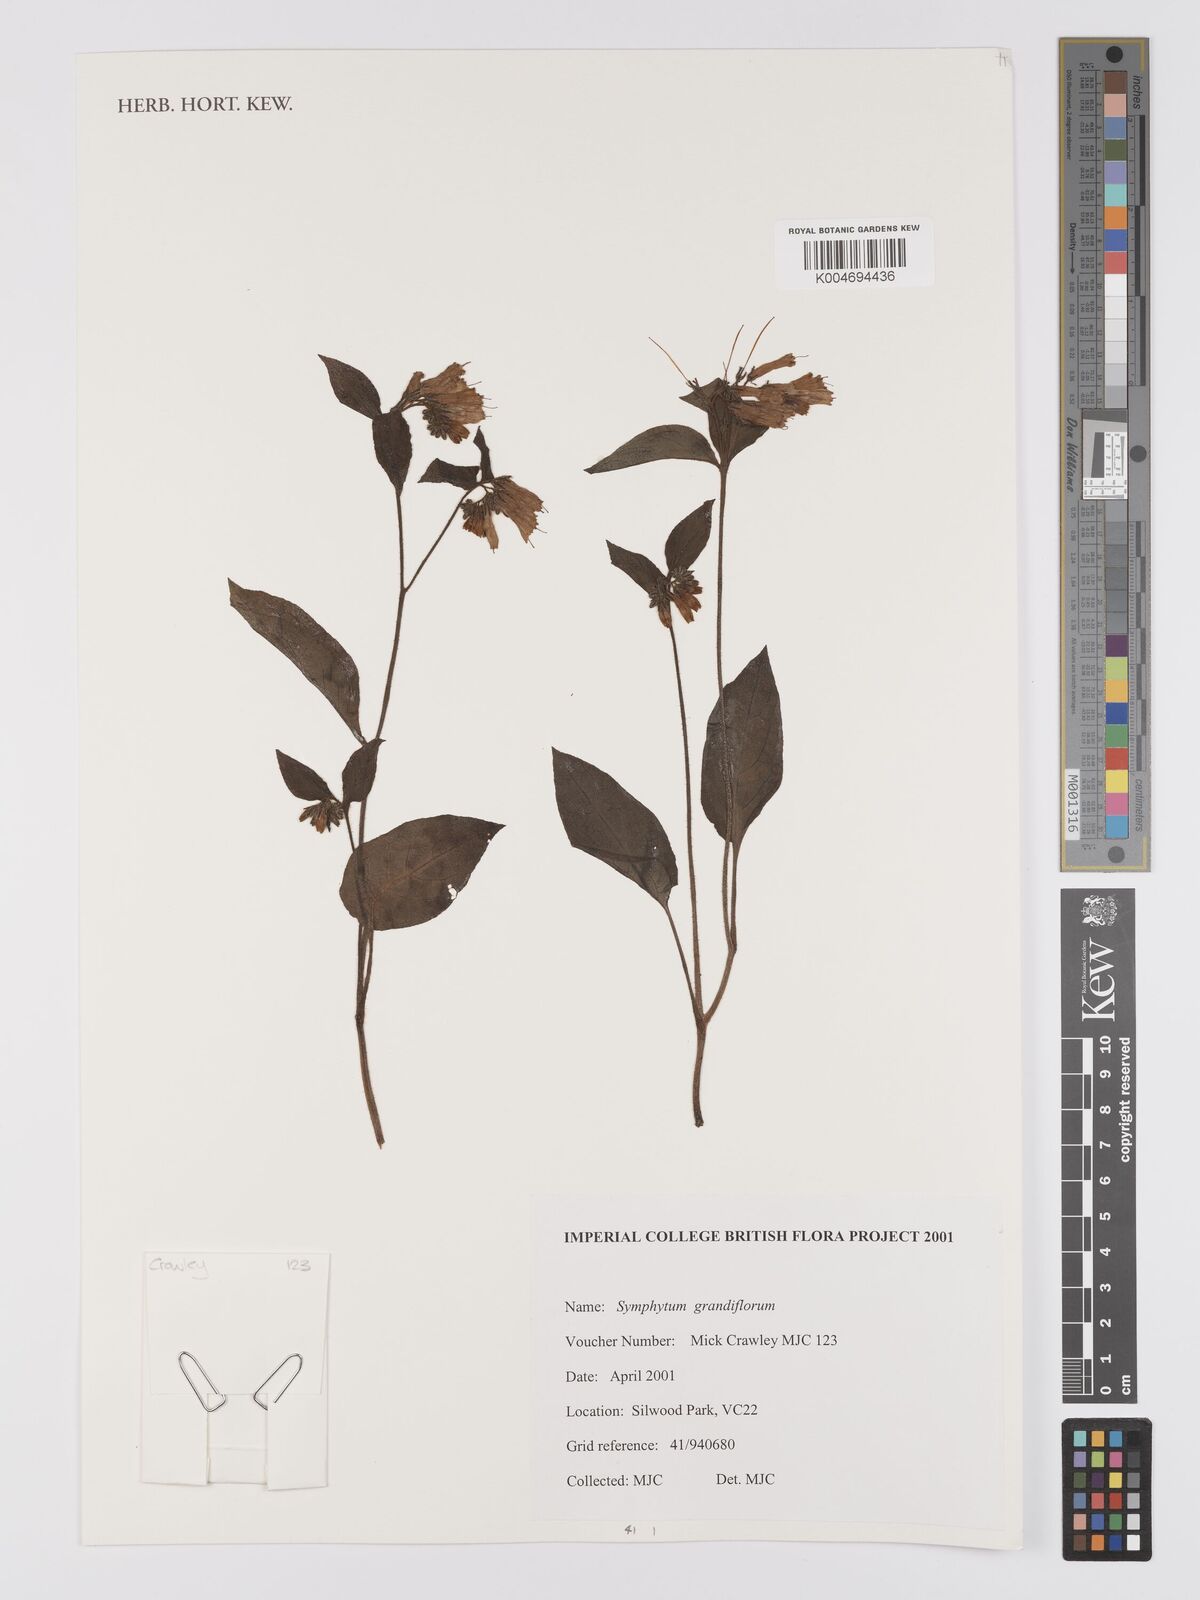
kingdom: Plantae
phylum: Tracheophyta
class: Magnoliopsida
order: Boraginales
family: Boraginaceae
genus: Symphytum
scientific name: Symphytum grandiflorum
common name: Creeping comfrey
